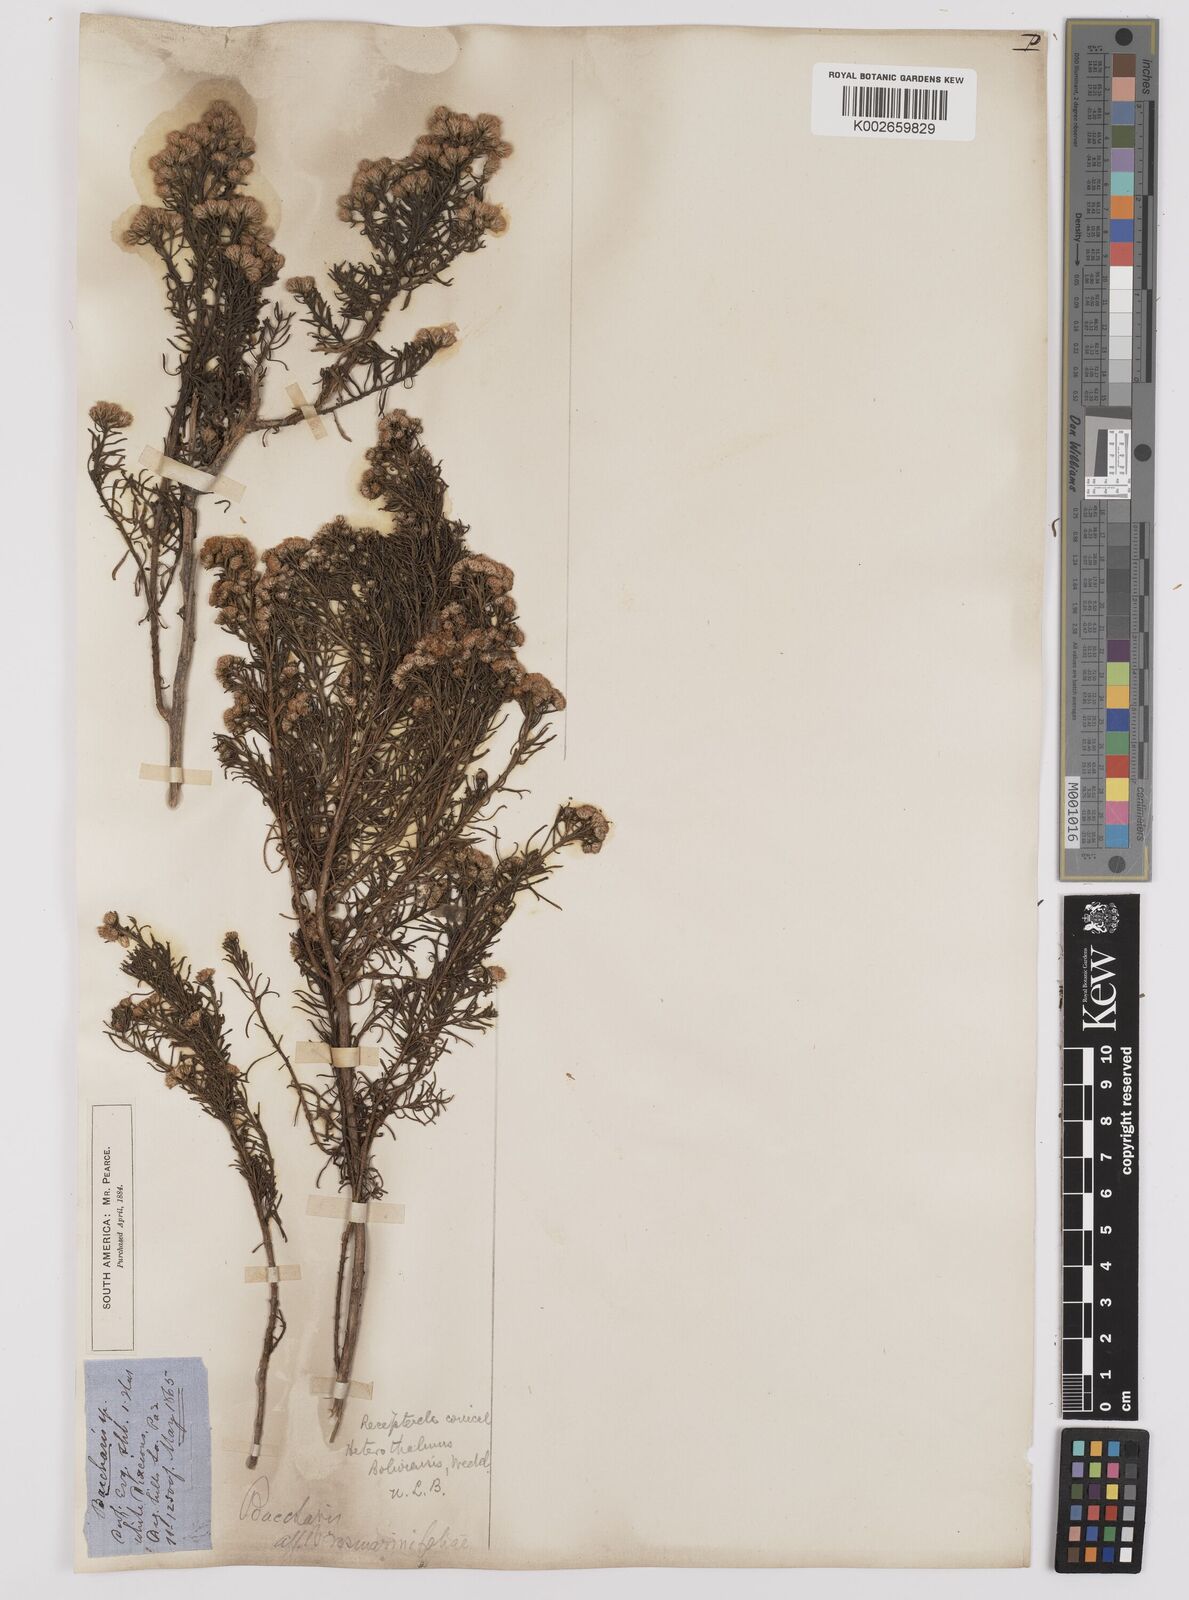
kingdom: Plantae
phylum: Tracheophyta
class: Magnoliopsida
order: Asterales
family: Asteraceae
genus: Baccharis
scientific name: Baccharis bolivensis
